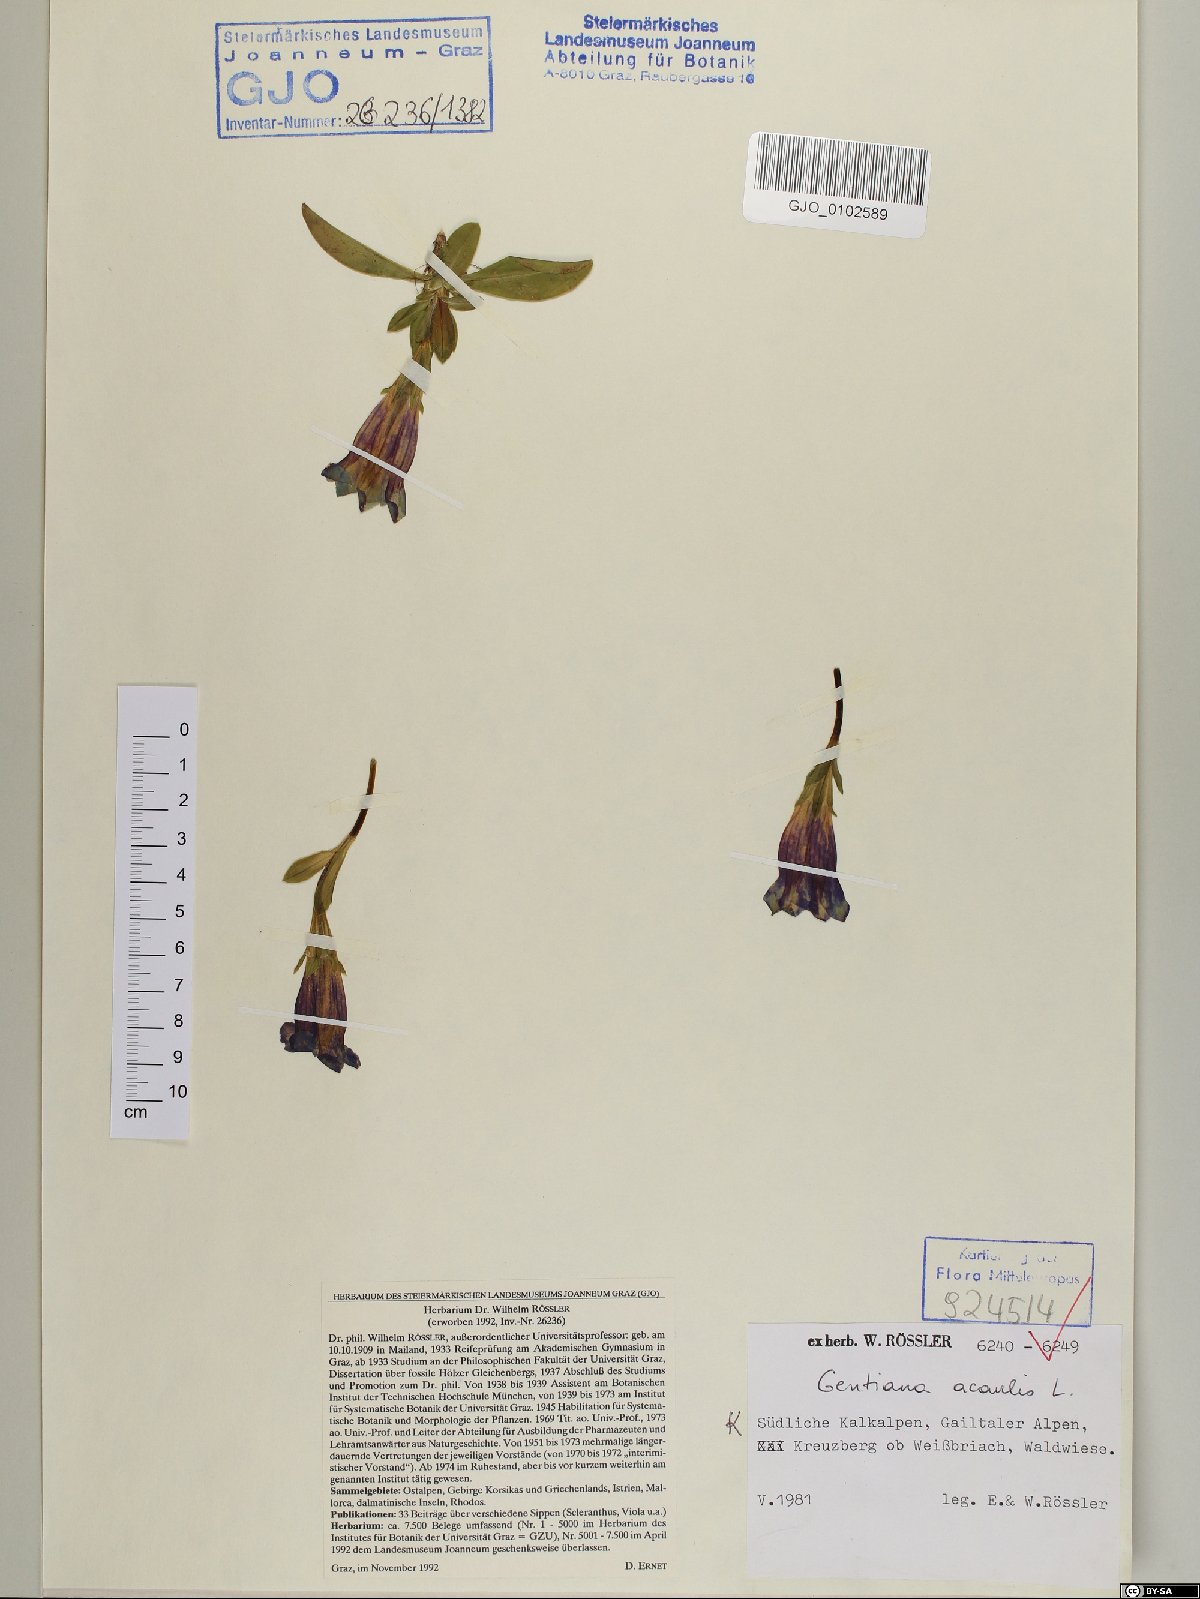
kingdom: Plantae
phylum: Tracheophyta
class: Magnoliopsida
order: Gentianales
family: Gentianaceae
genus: Gentiana
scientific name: Gentiana acaulis
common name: Trumpet gentian
